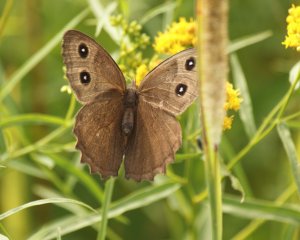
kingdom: Animalia
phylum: Arthropoda
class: Insecta
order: Lepidoptera
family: Nymphalidae
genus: Cercyonis
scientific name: Cercyonis pegala
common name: Common Wood-Nymph
